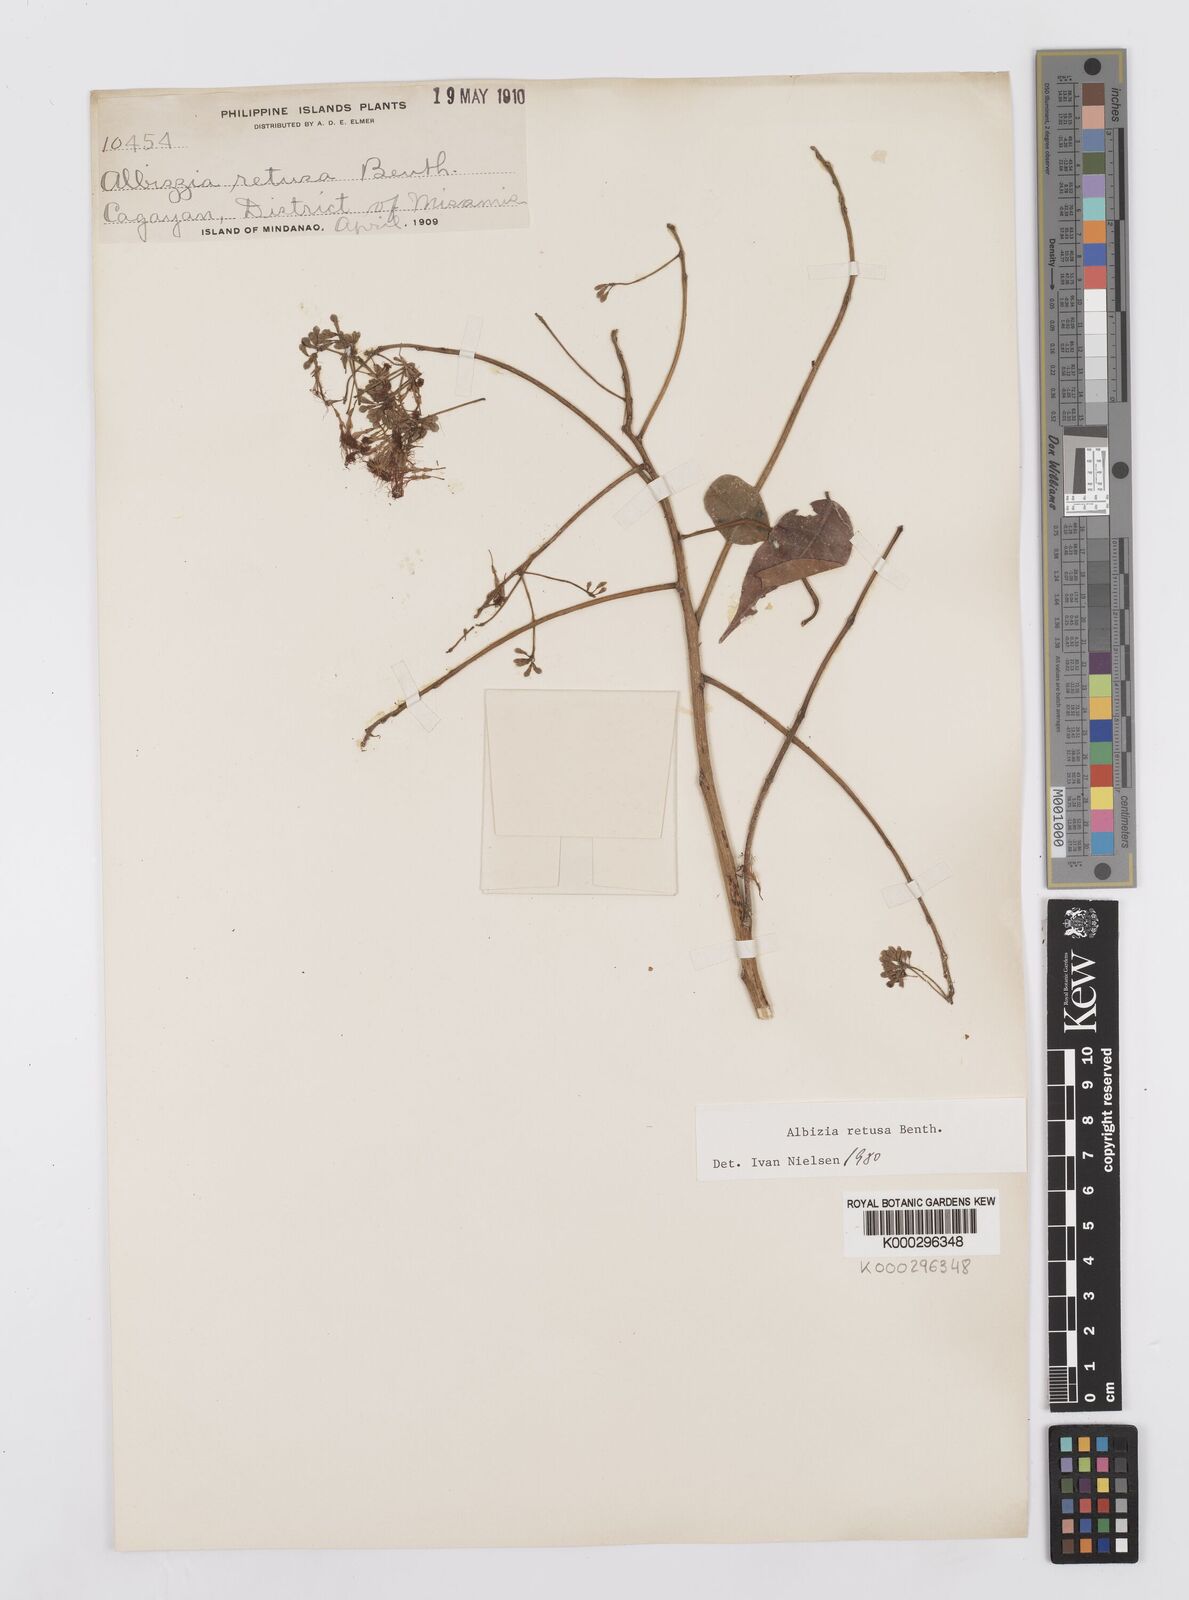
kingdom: Plantae
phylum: Tracheophyta
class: Magnoliopsida
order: Fabales
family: Fabaceae
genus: Albizia
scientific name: Albizia retusa
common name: Sea albizia
